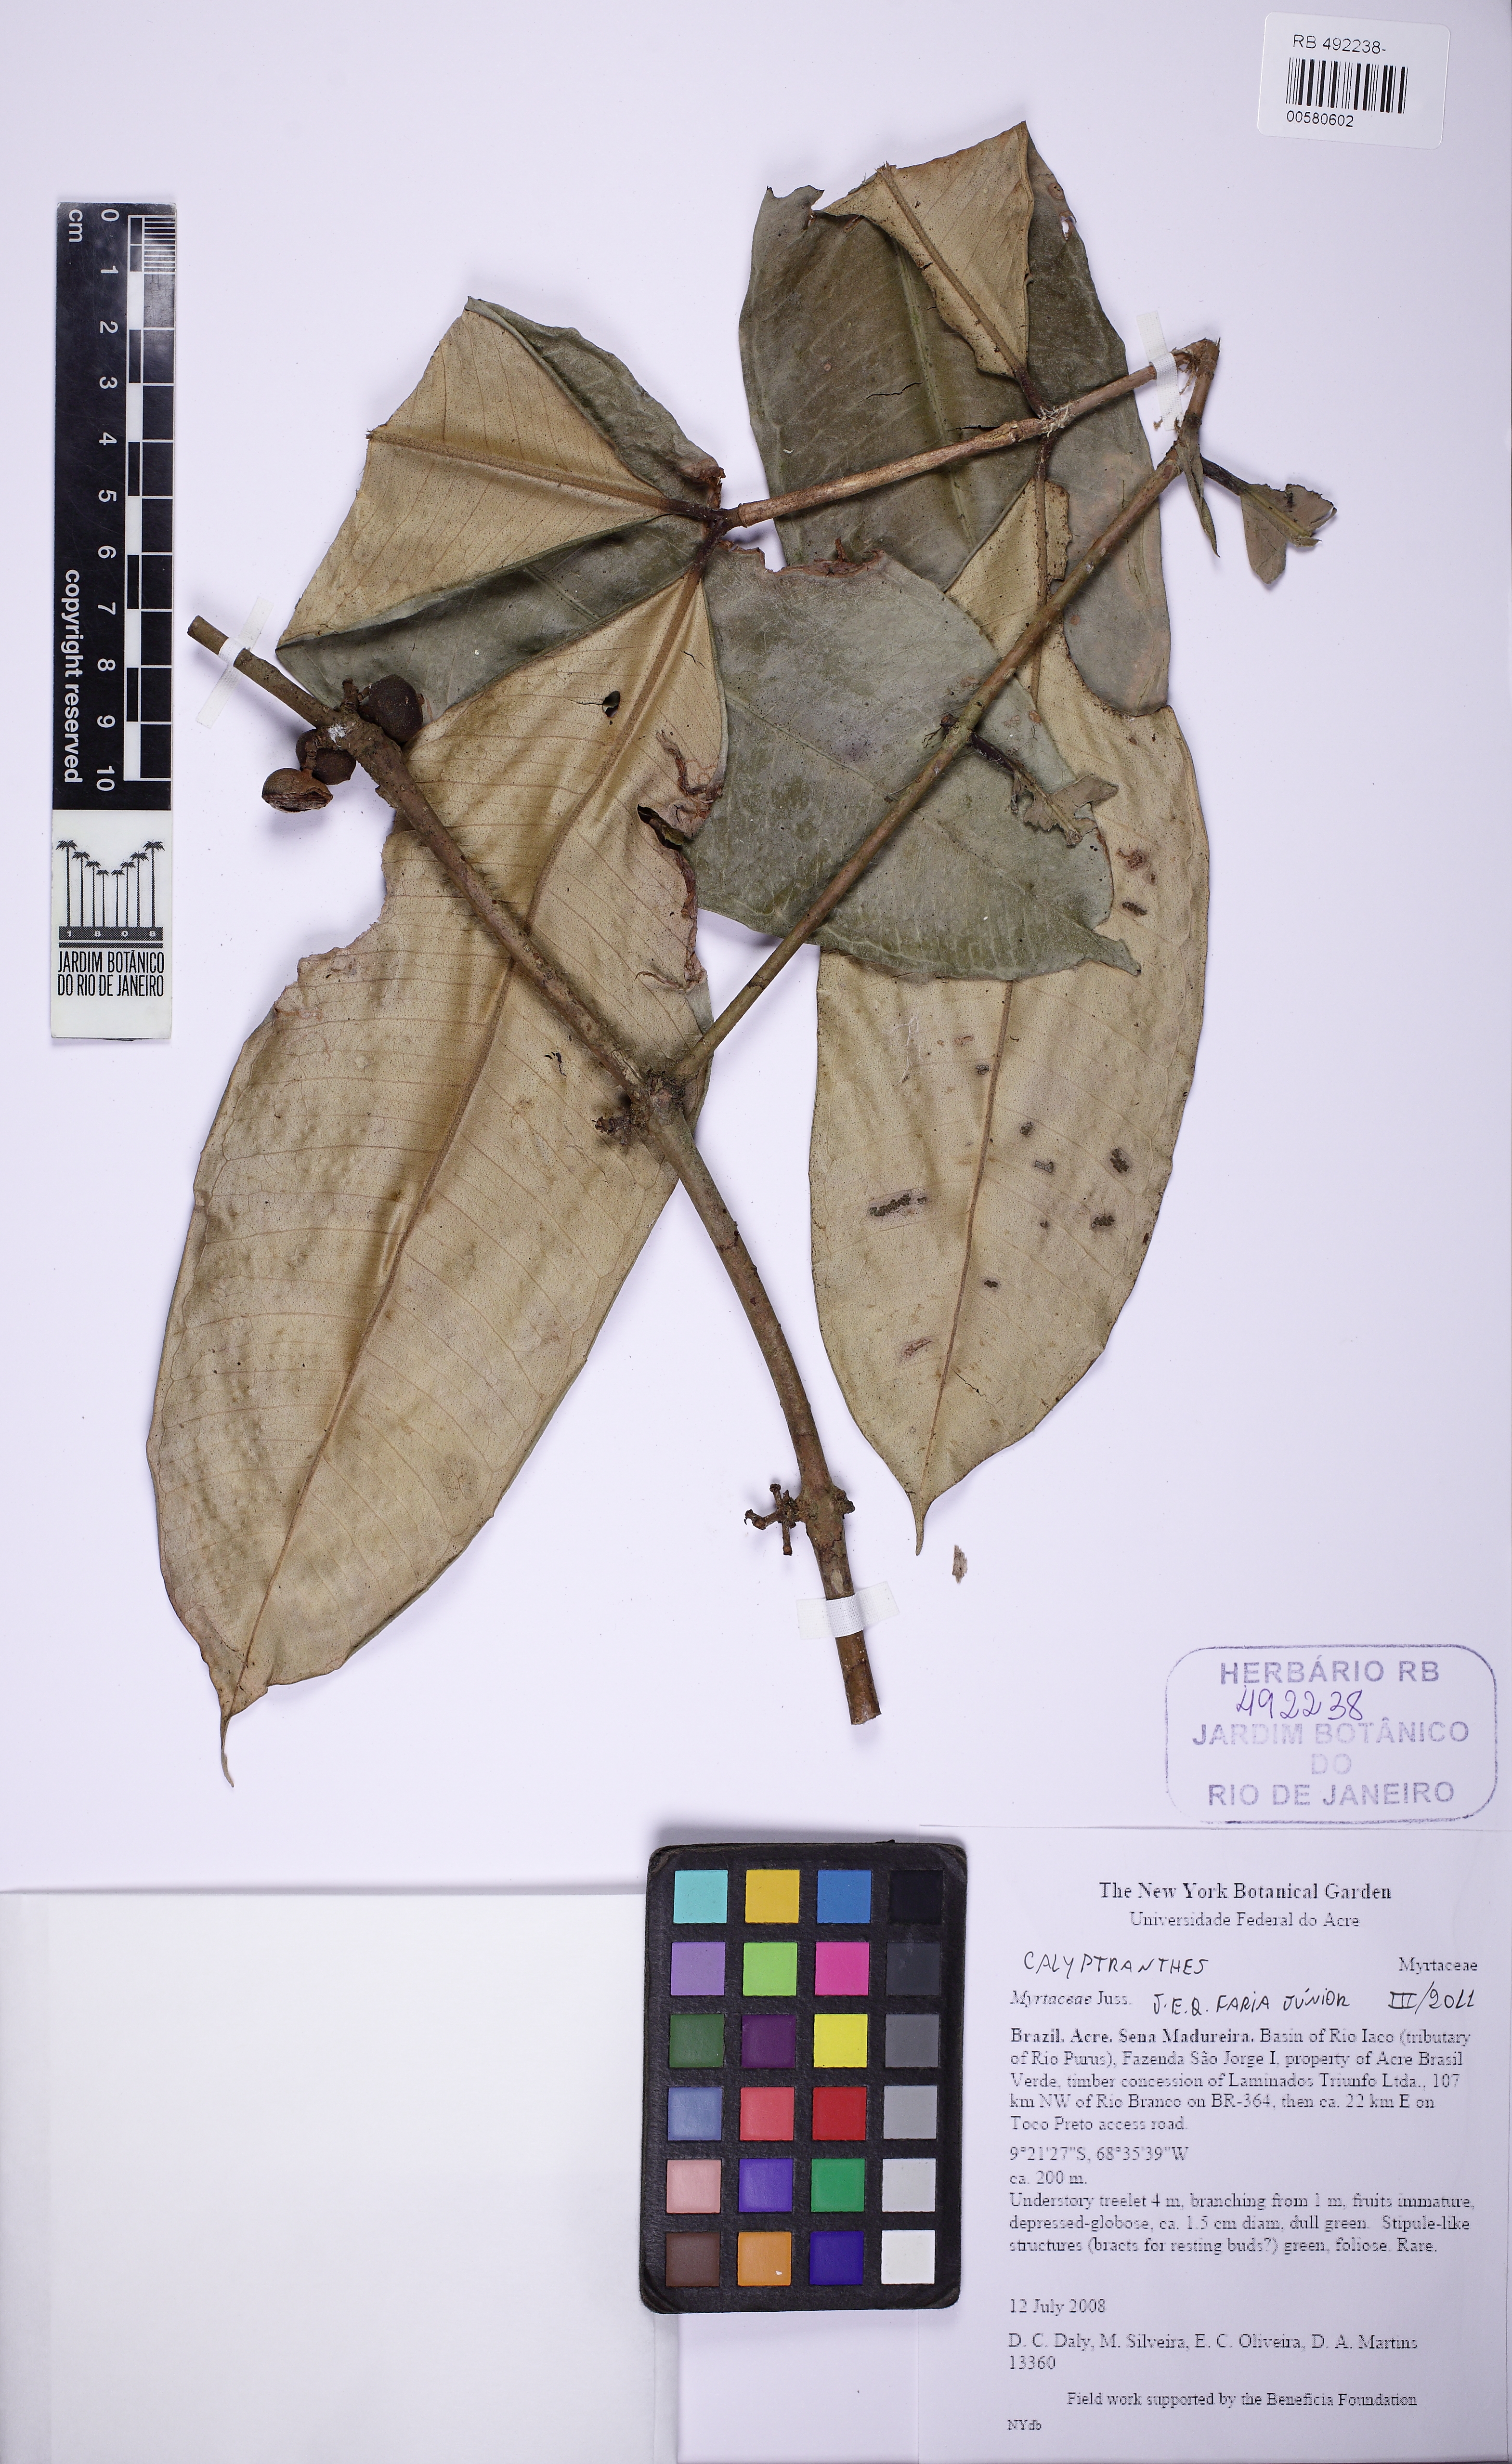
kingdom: Plantae
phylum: Tracheophyta
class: Magnoliopsida
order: Myrtales
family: Myrtaceae
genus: Myrcia
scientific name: Myrcia neospeciosa
